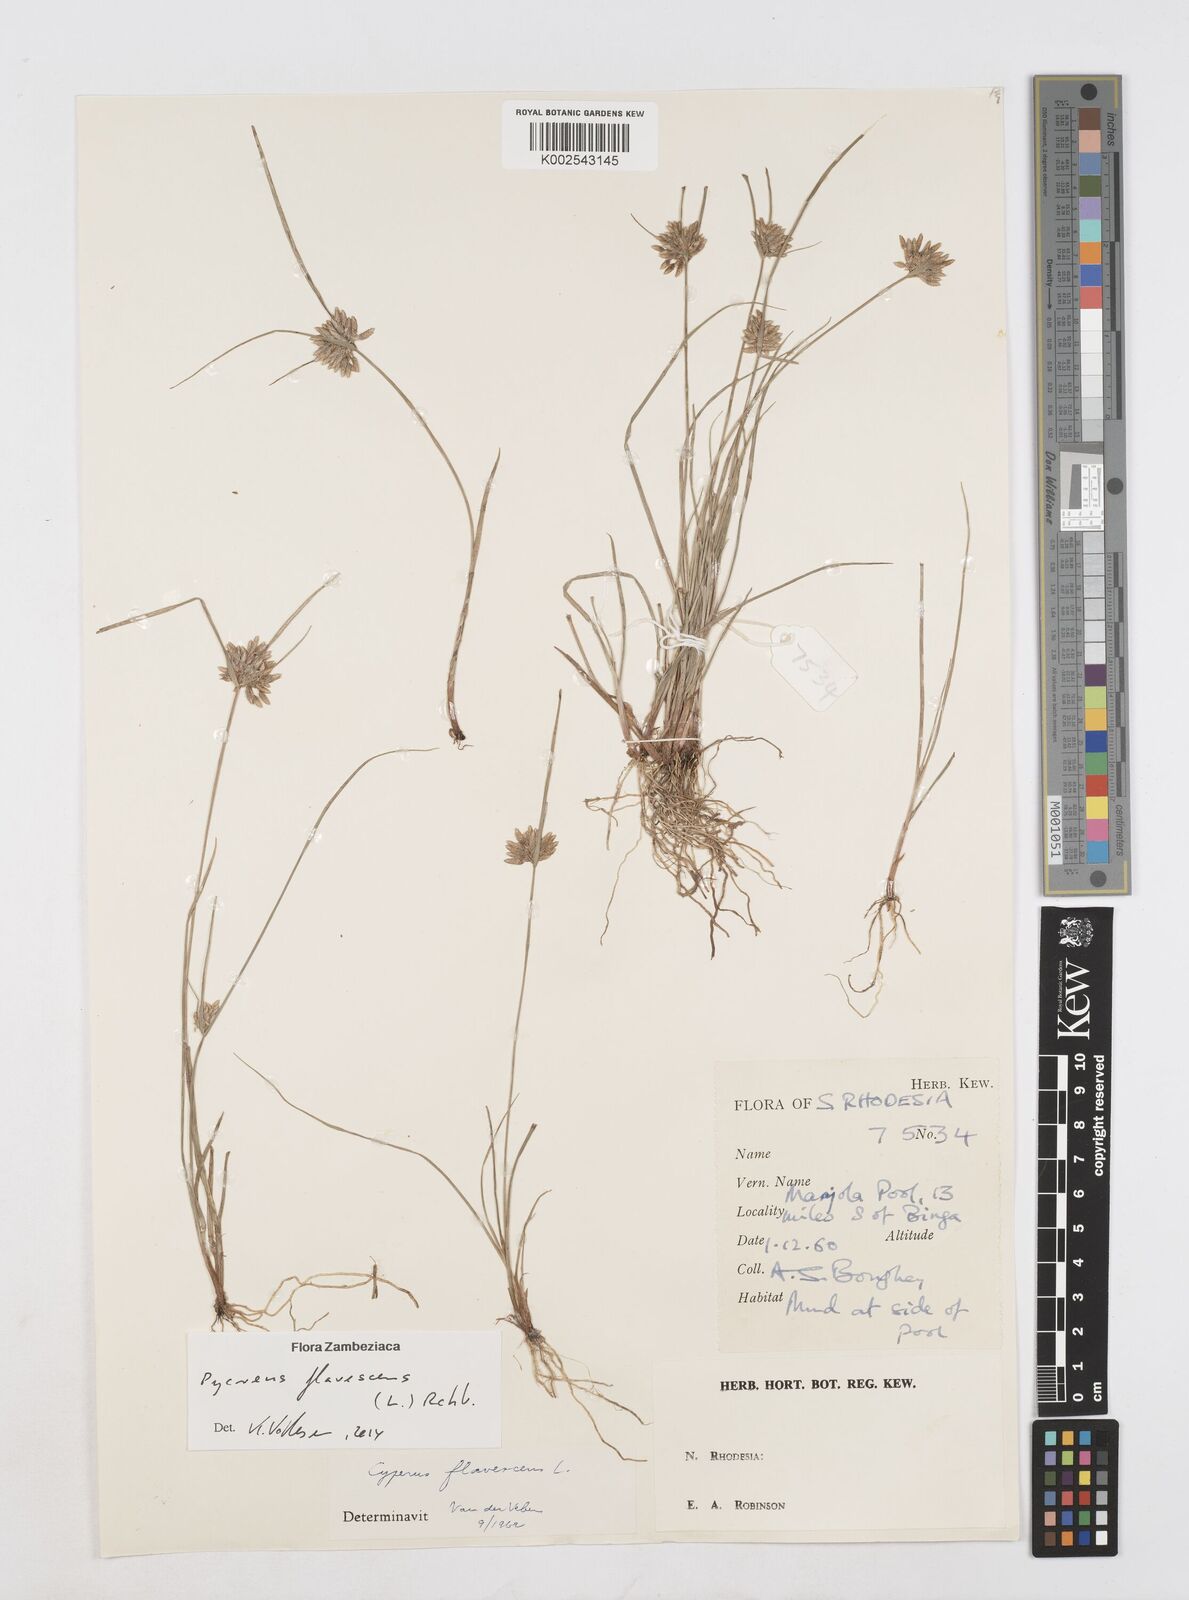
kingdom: Plantae
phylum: Tracheophyta
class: Liliopsida
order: Poales
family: Cyperaceae
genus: Cyperus
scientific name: Cyperus flavescens
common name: Yellow galingale
